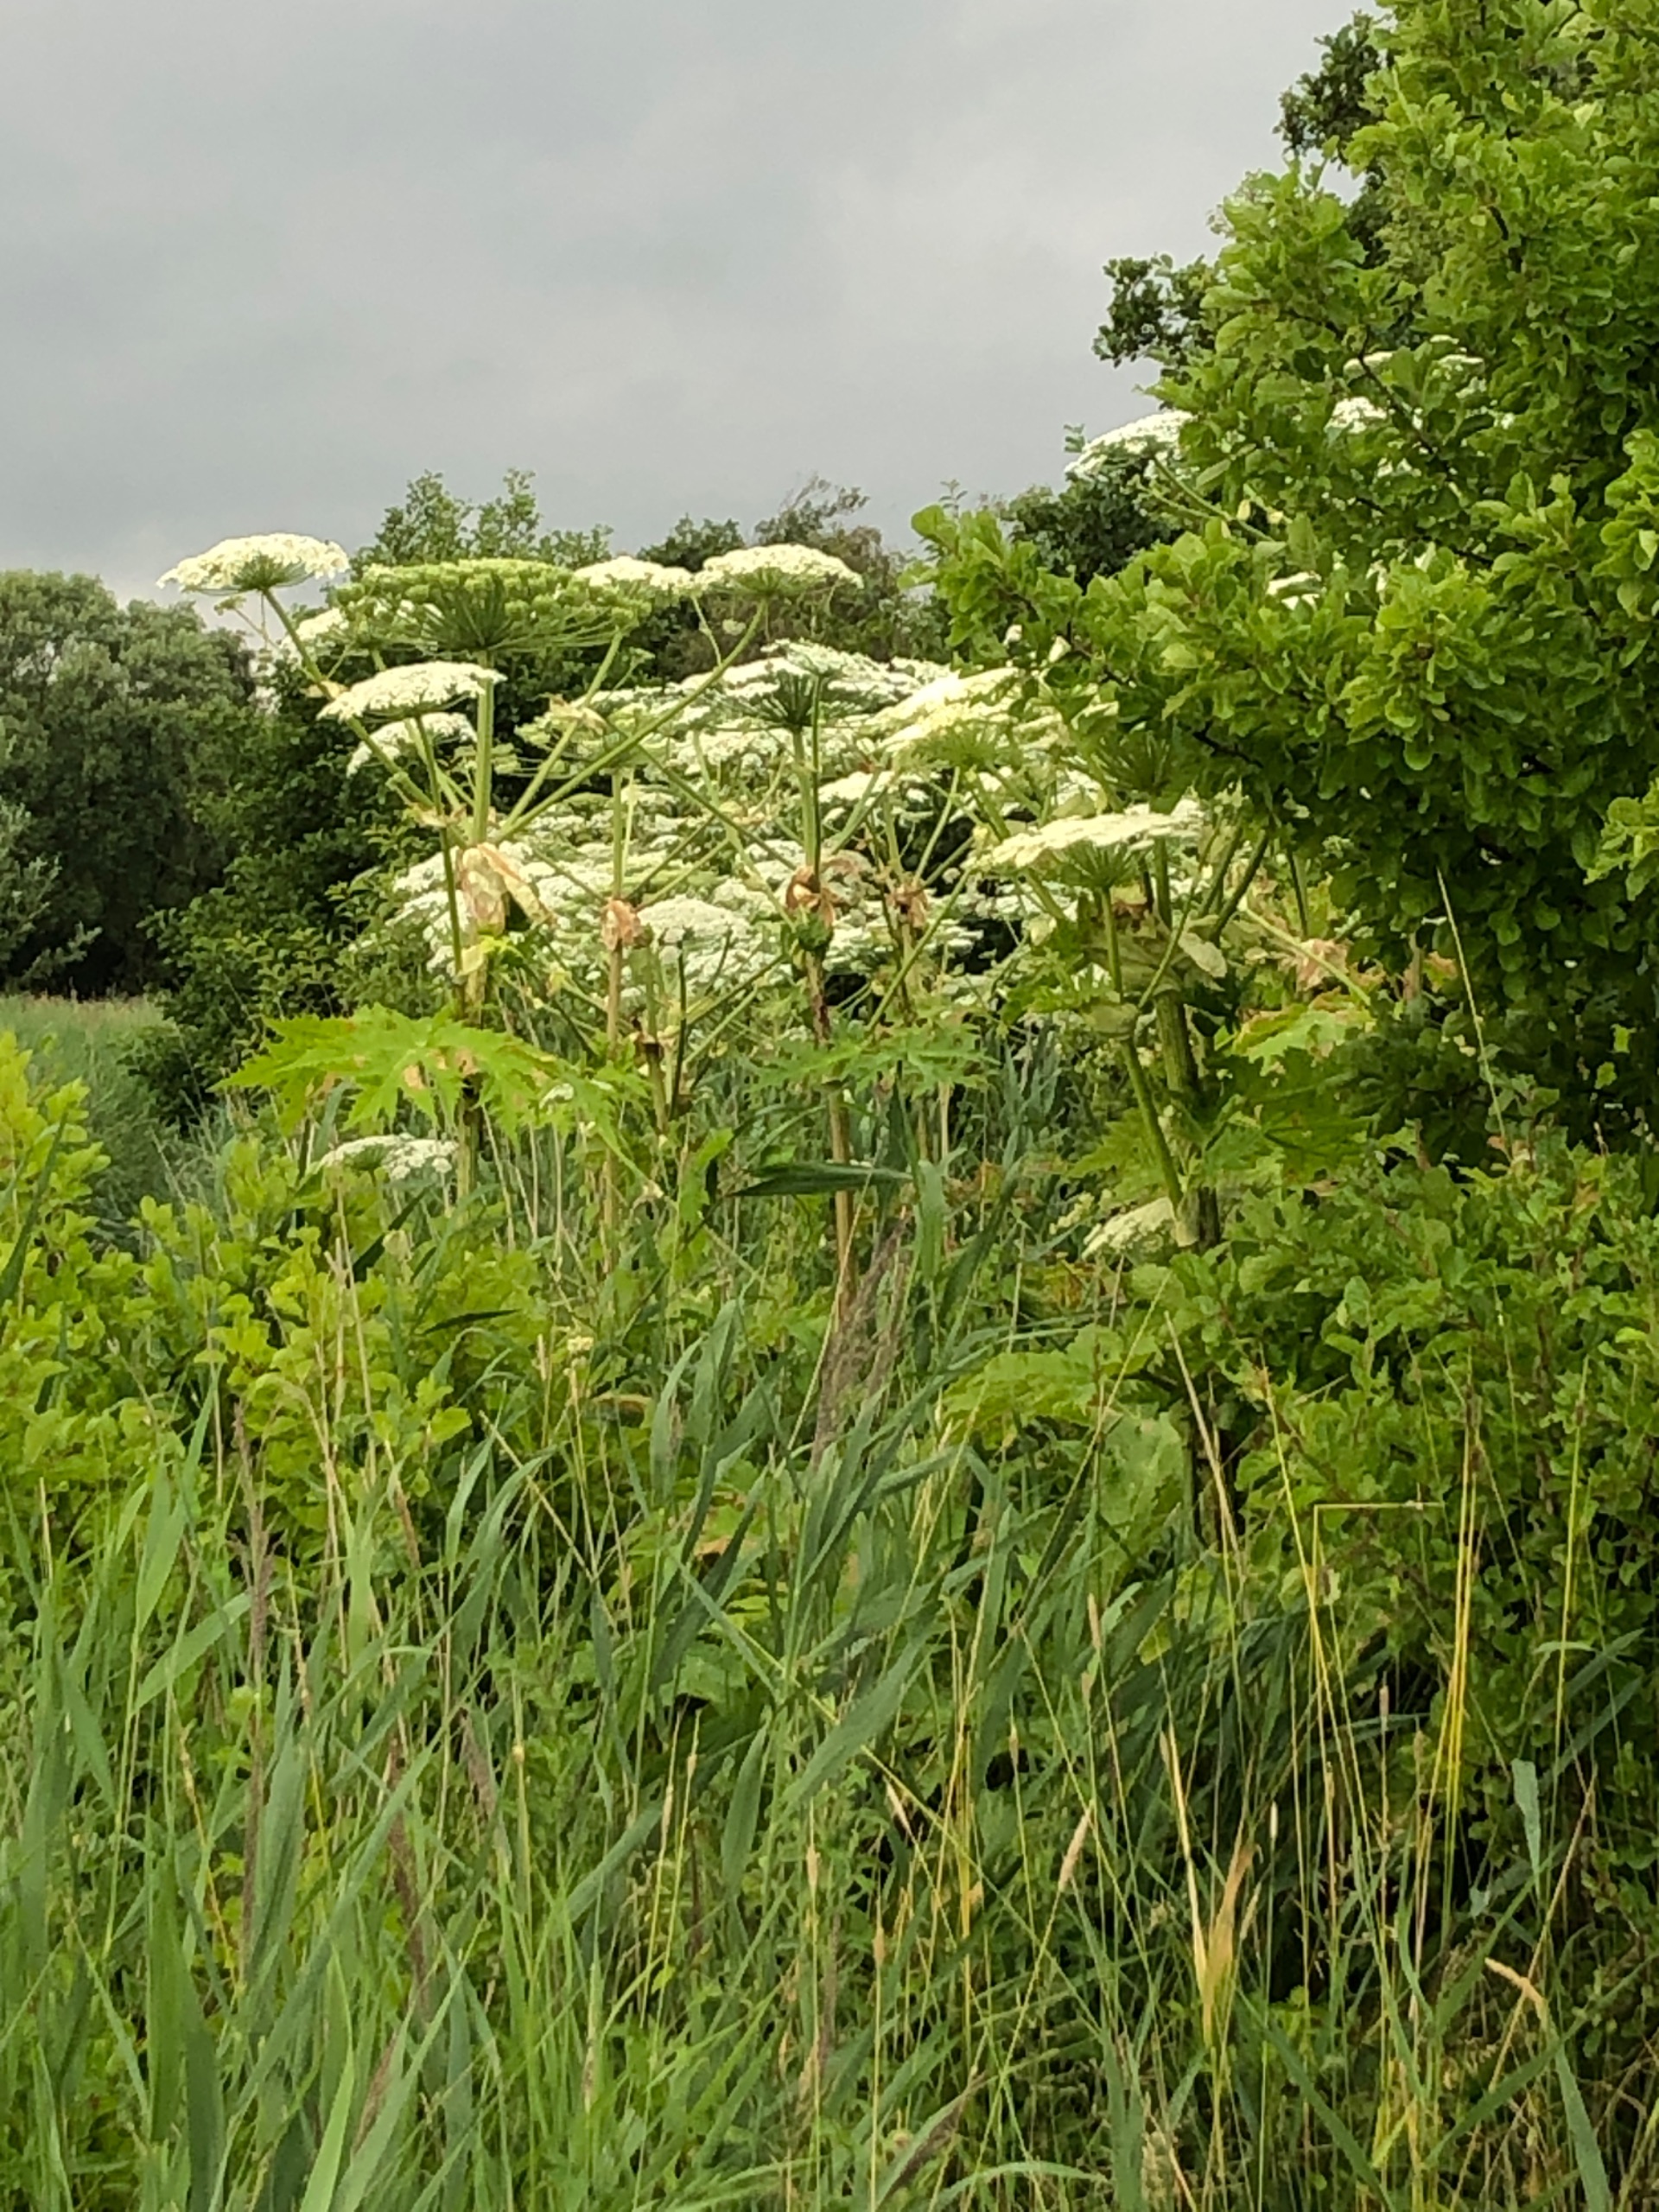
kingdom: Plantae
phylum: Tracheophyta
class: Magnoliopsida
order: Apiales
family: Apiaceae
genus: Heracleum
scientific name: Heracleum mantegazzianum
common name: Kæmpe-bjørneklo
